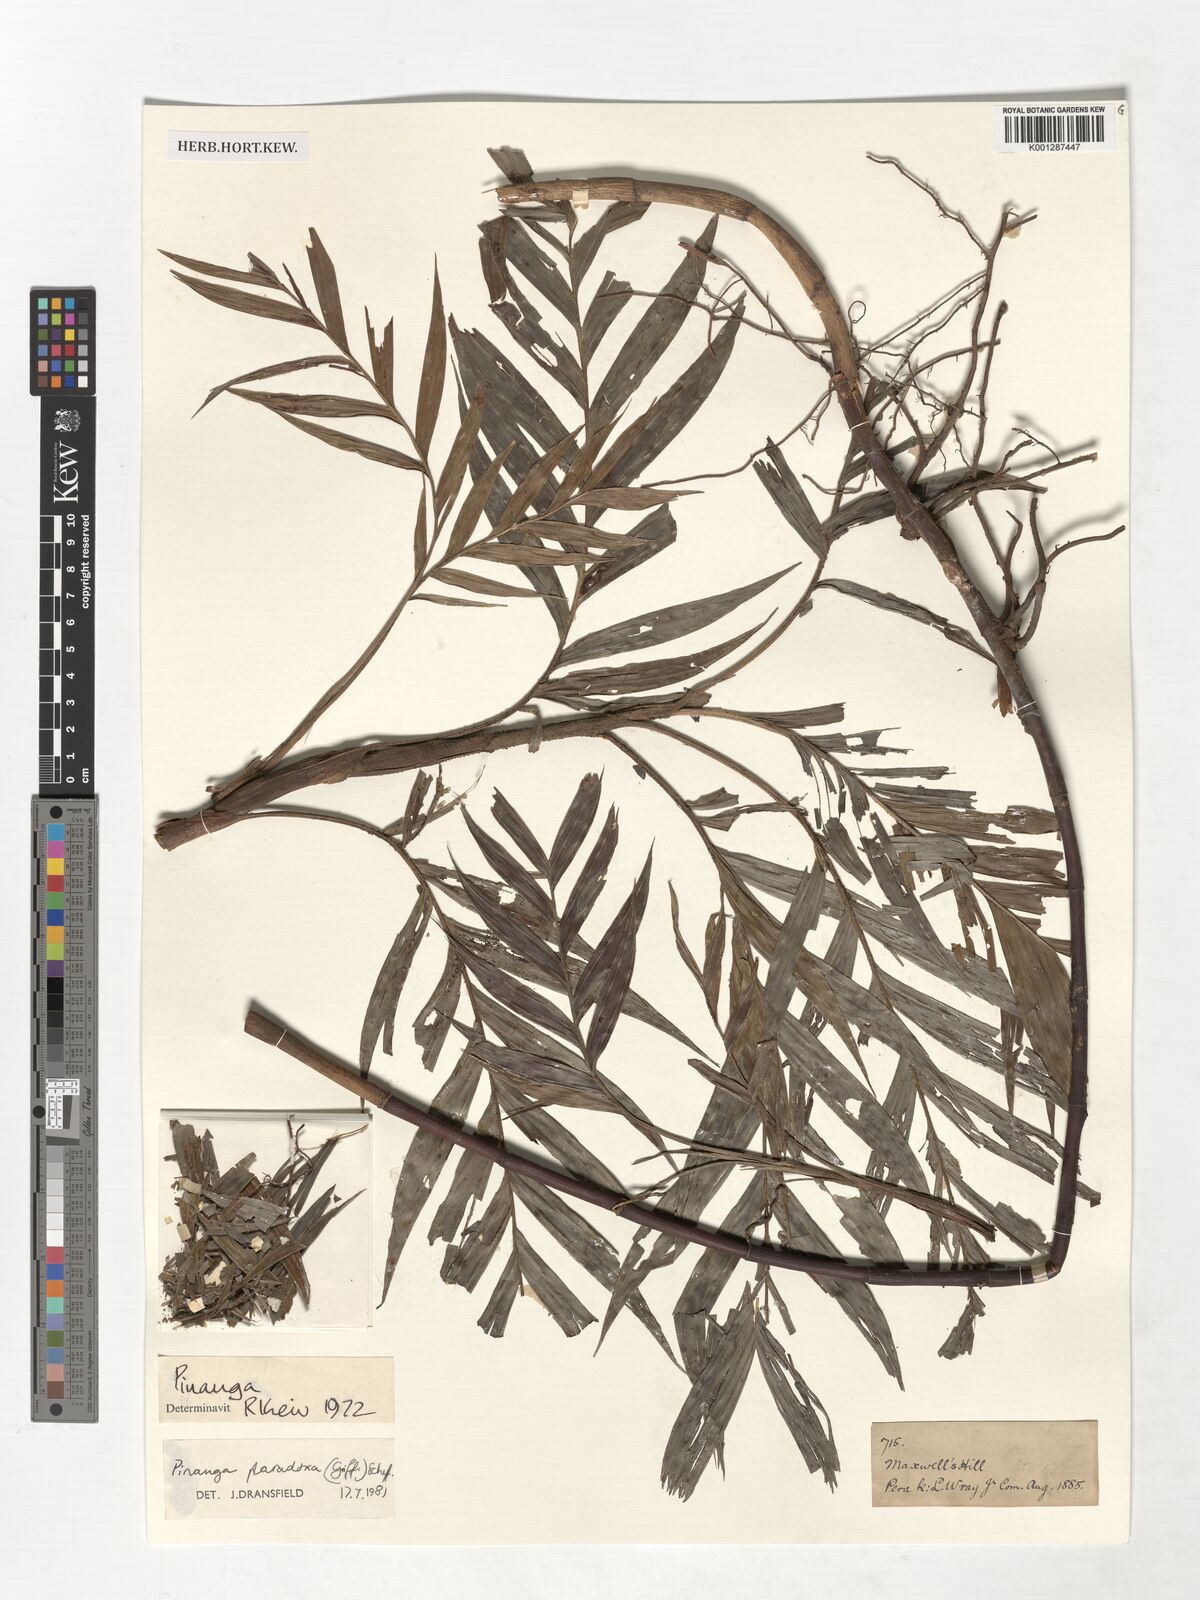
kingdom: Plantae
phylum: Tracheophyta
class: Liliopsida
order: Arecales
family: Arecaceae
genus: Pinanga
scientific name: Pinanga paradoxa
